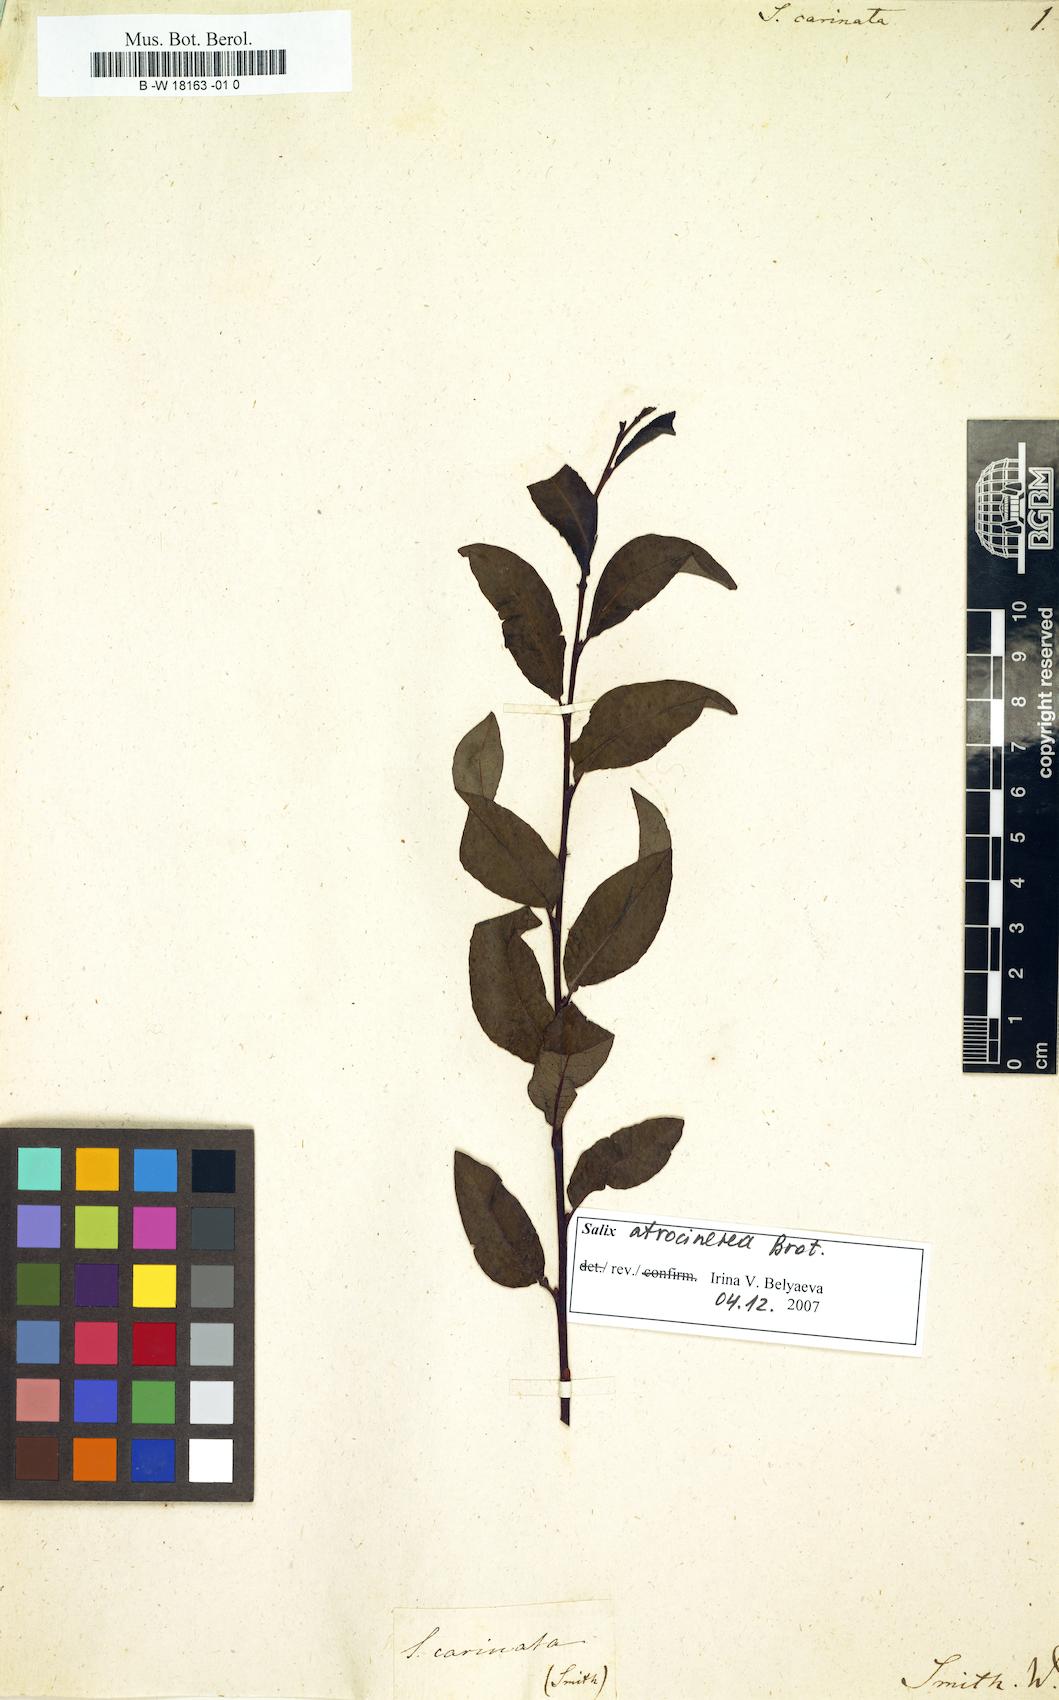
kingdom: Plantae
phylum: Tracheophyta
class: Magnoliopsida
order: Malpighiales
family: Salicaceae
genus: Salix
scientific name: Salix arbuscula
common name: Mountain willow
